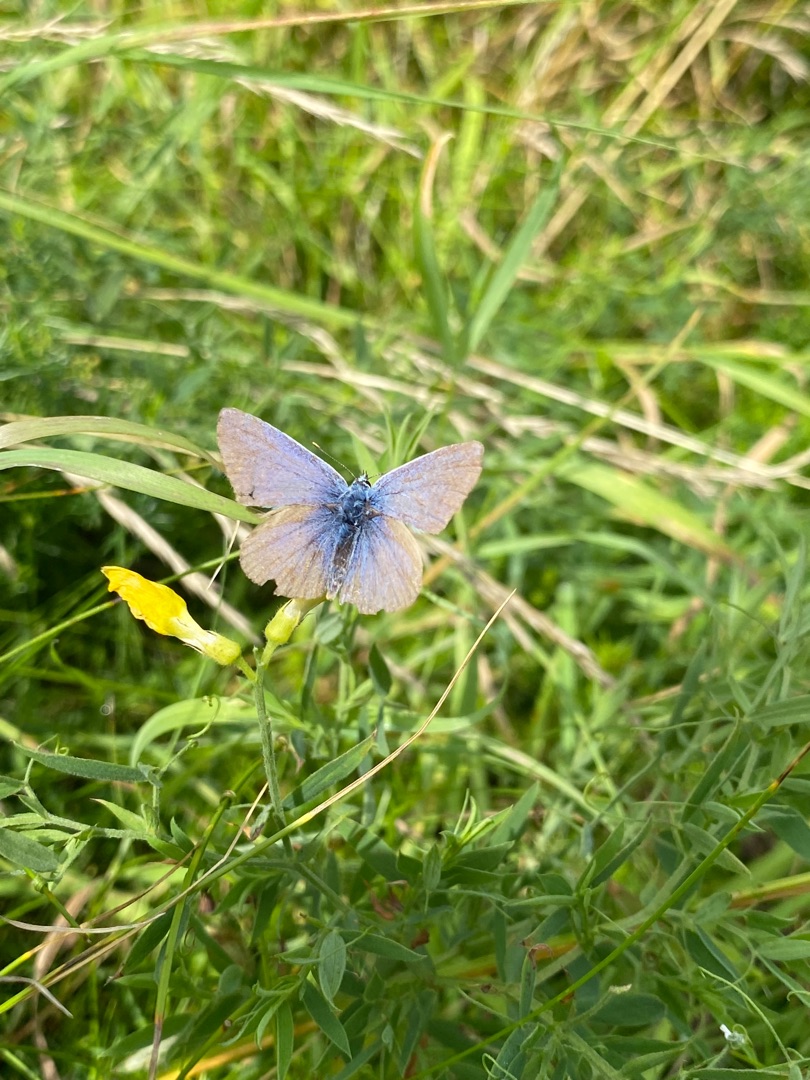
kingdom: Animalia
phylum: Arthropoda
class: Insecta
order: Lepidoptera
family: Lycaenidae
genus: Polyommatus
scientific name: Polyommatus icarus
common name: Almindelig blåfugl
